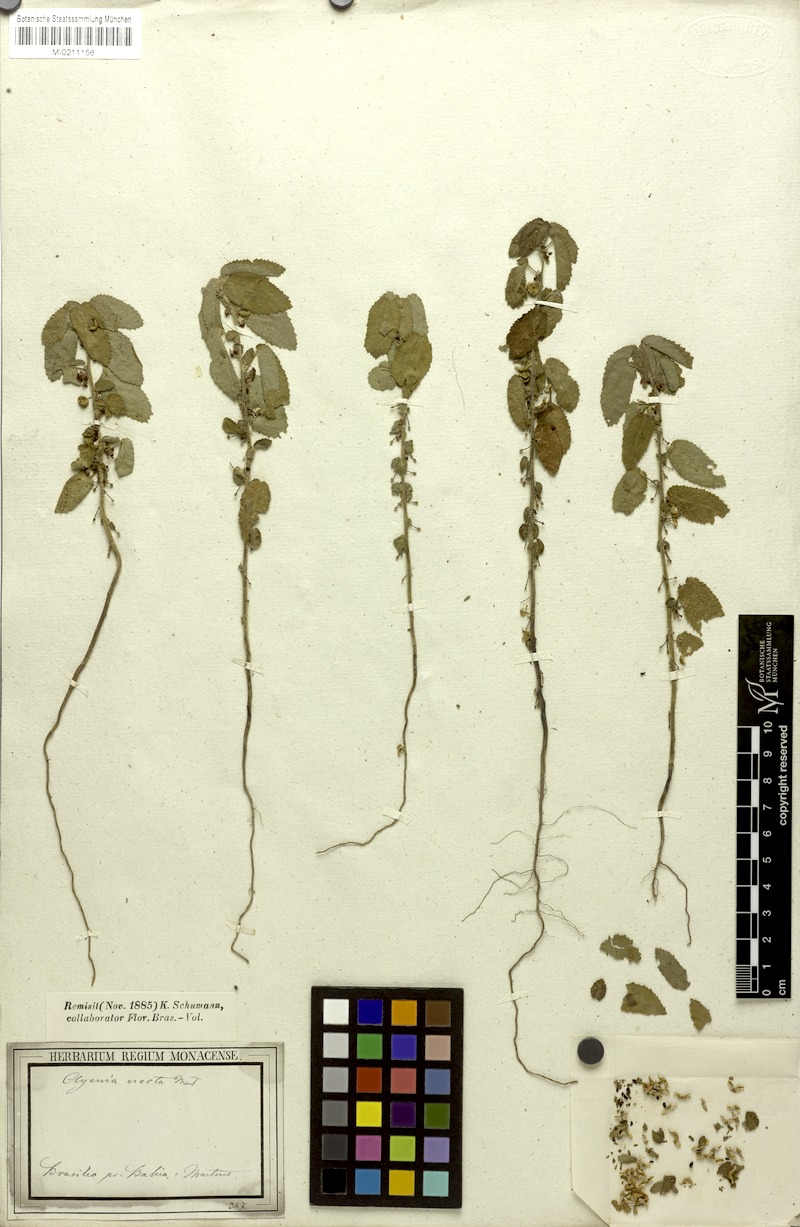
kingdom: Plantae
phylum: Tracheophyta
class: Magnoliopsida
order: Malvales
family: Malvaceae
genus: Ayenia
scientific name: Ayenia erecta
